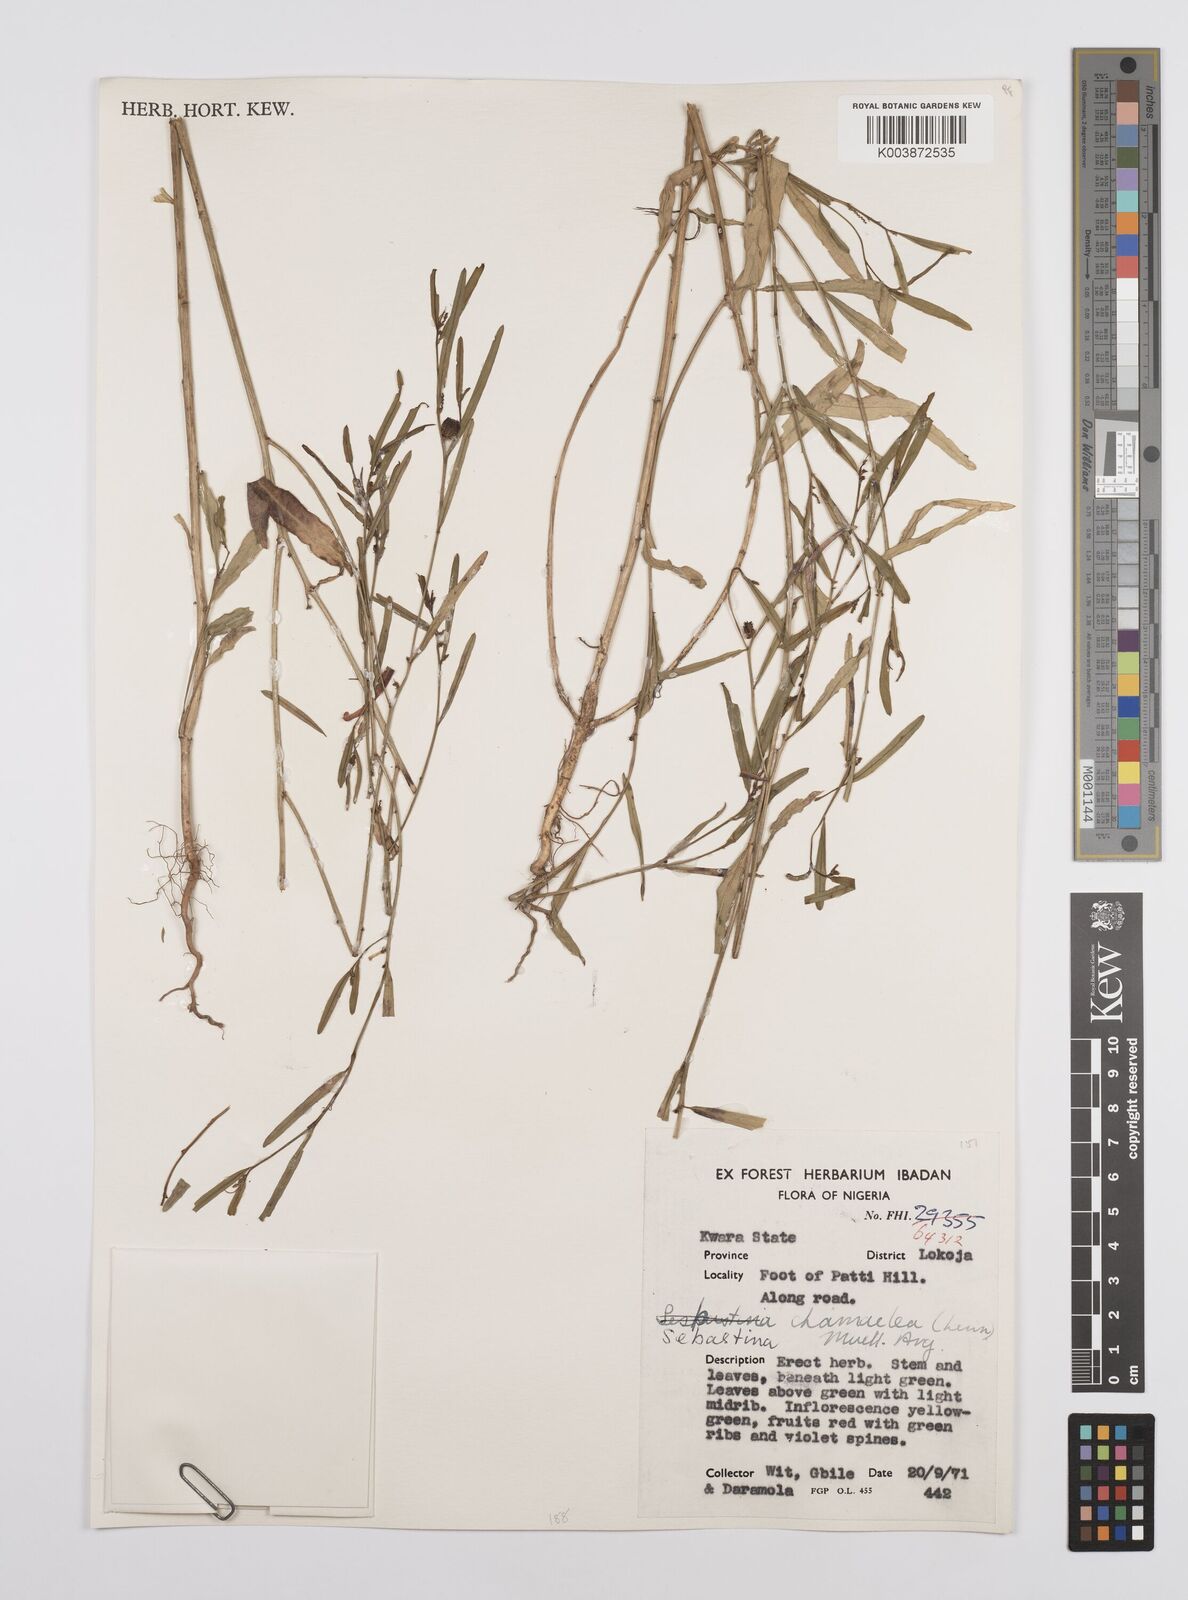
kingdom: Plantae
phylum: Tracheophyta
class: Magnoliopsida
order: Malpighiales
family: Euphorbiaceae
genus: Microstachys
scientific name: Microstachys chamaelea
